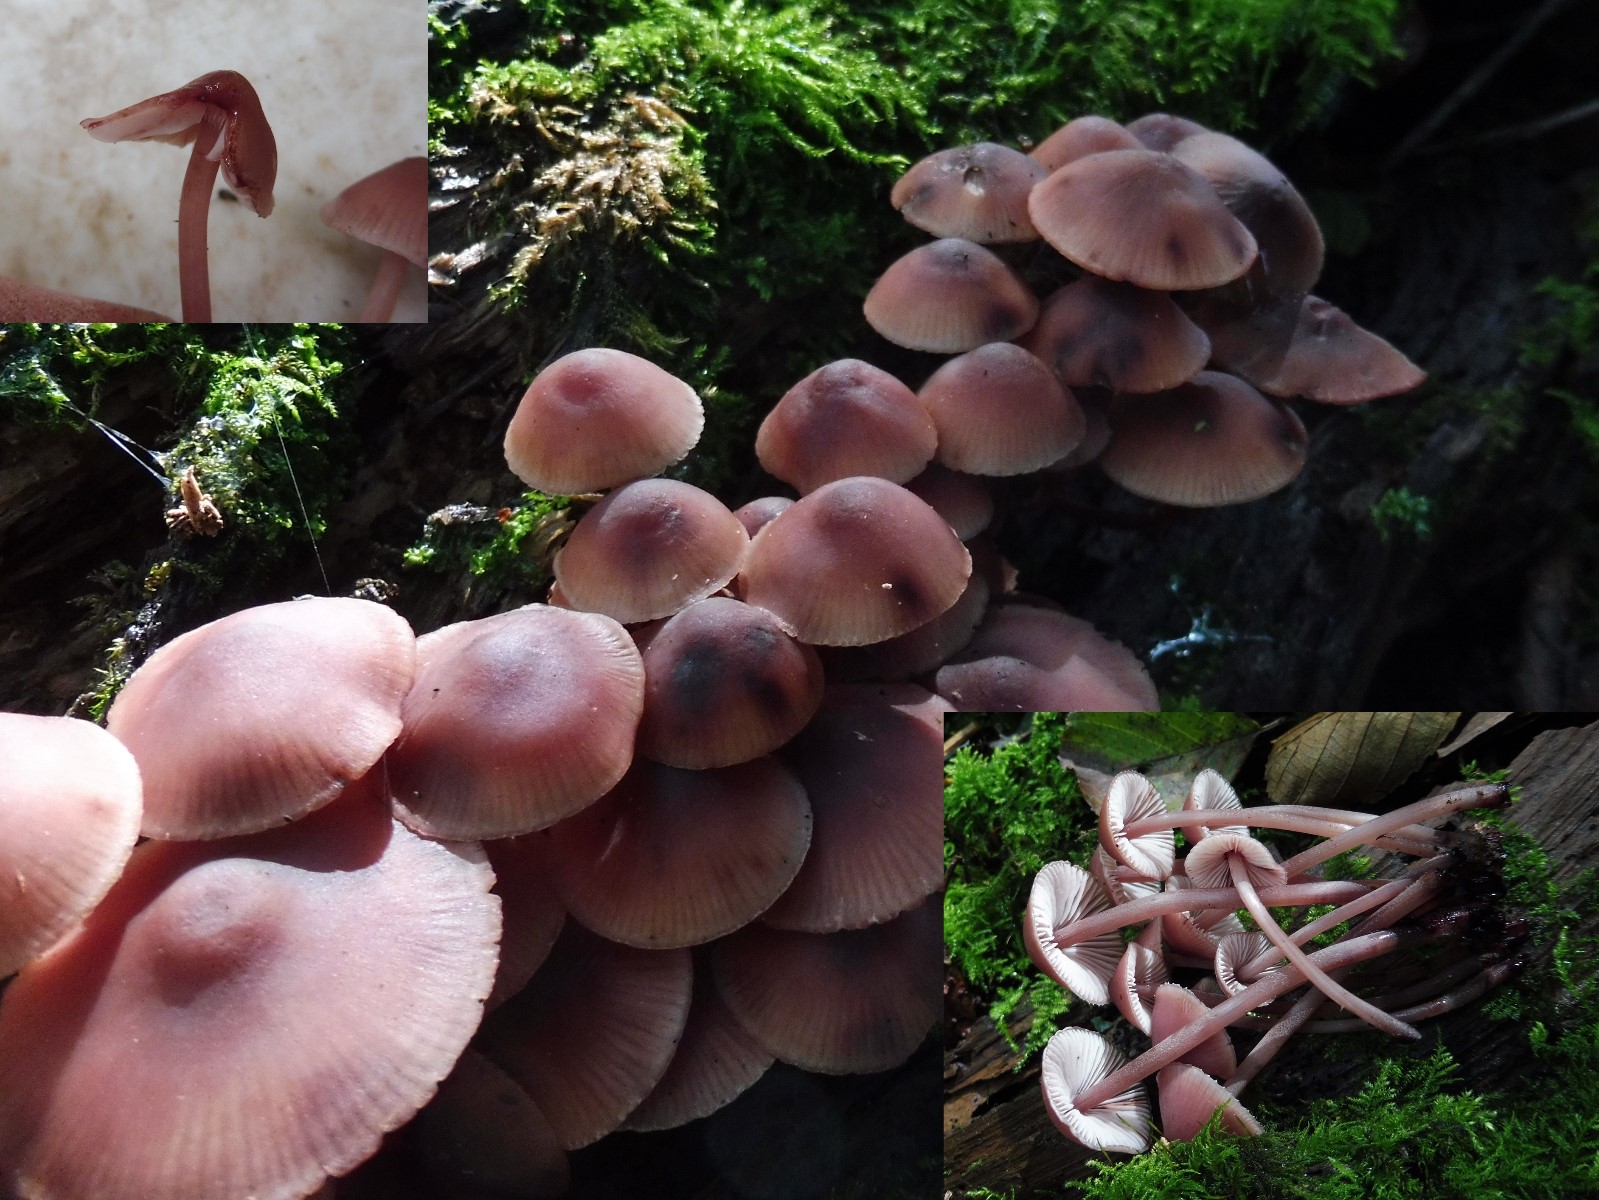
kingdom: Fungi
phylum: Basidiomycota
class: Agaricomycetes
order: Agaricales
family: Mycenaceae
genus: Mycena
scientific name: Mycena haematopus
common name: blødende huesvamp
